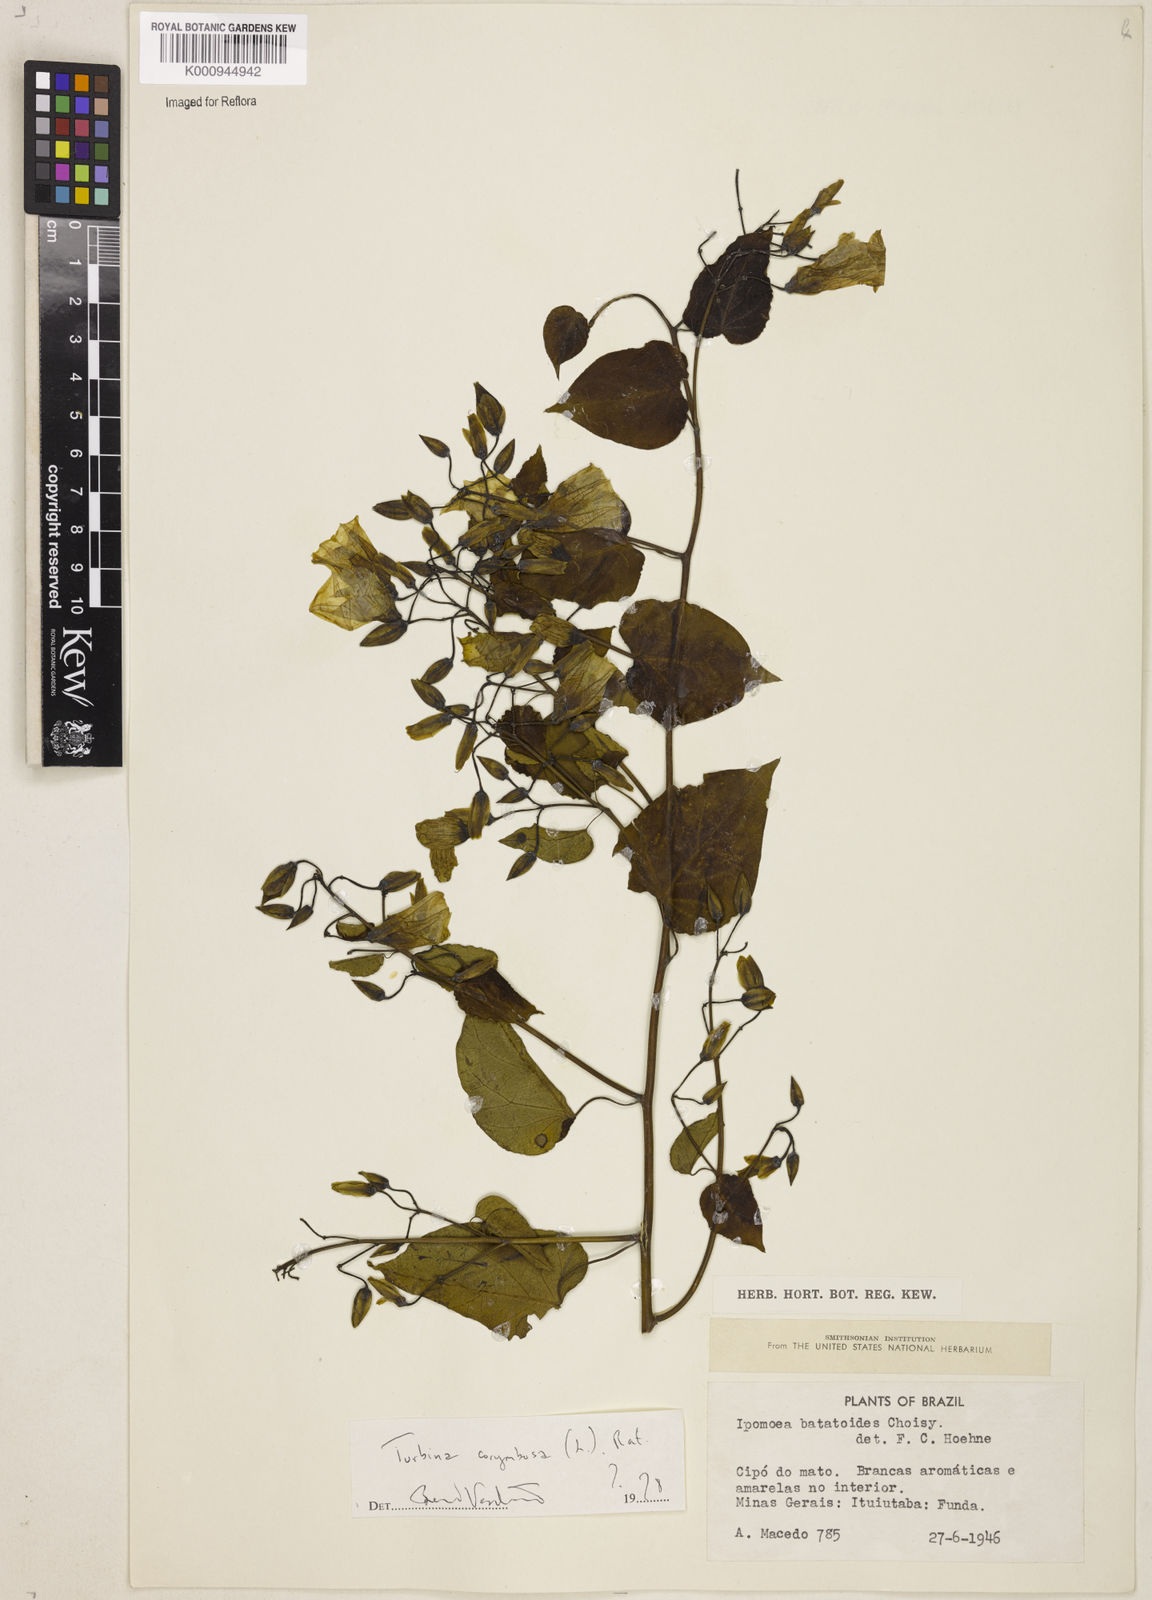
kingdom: Plantae
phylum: Tracheophyta
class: Magnoliopsida
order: Solanales
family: Convolvulaceae
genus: Ipomoea
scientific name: Ipomoea corymbosa
